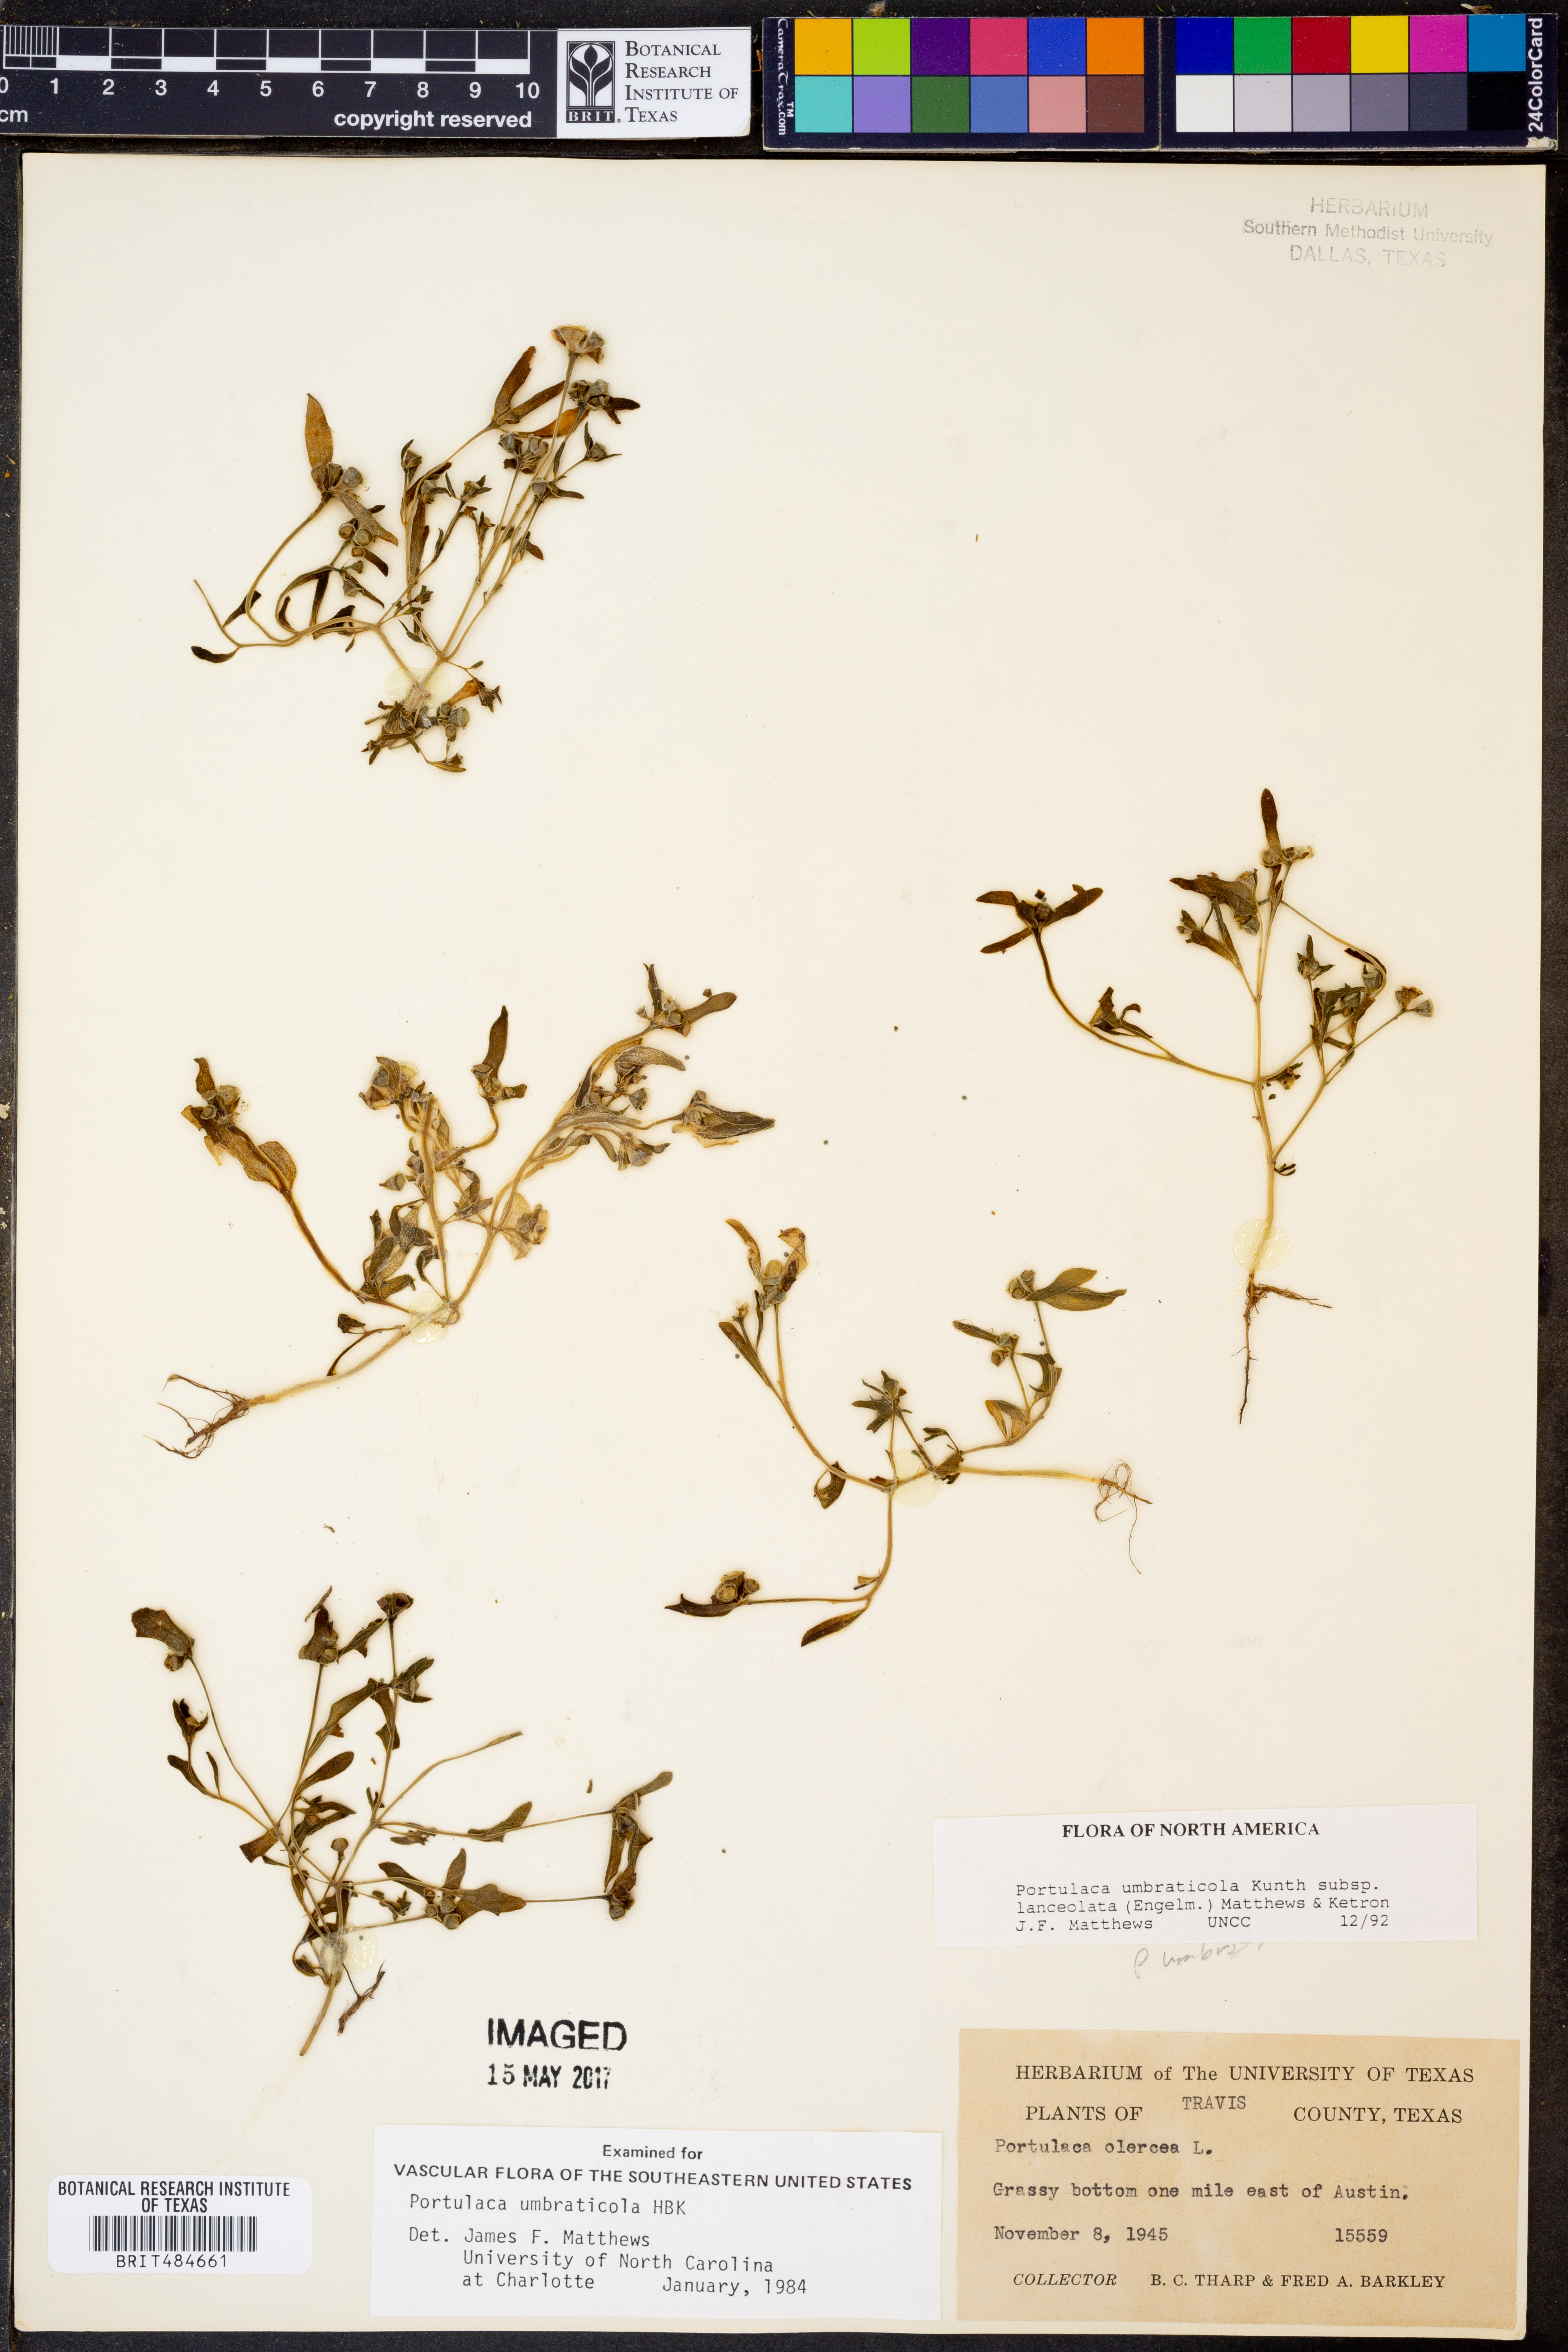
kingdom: Plantae
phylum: Tracheophyta
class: Magnoliopsida
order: Caryophyllales
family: Portulacaceae
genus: Portulaca
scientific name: Portulaca umbraticola
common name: Wingpod purslane
